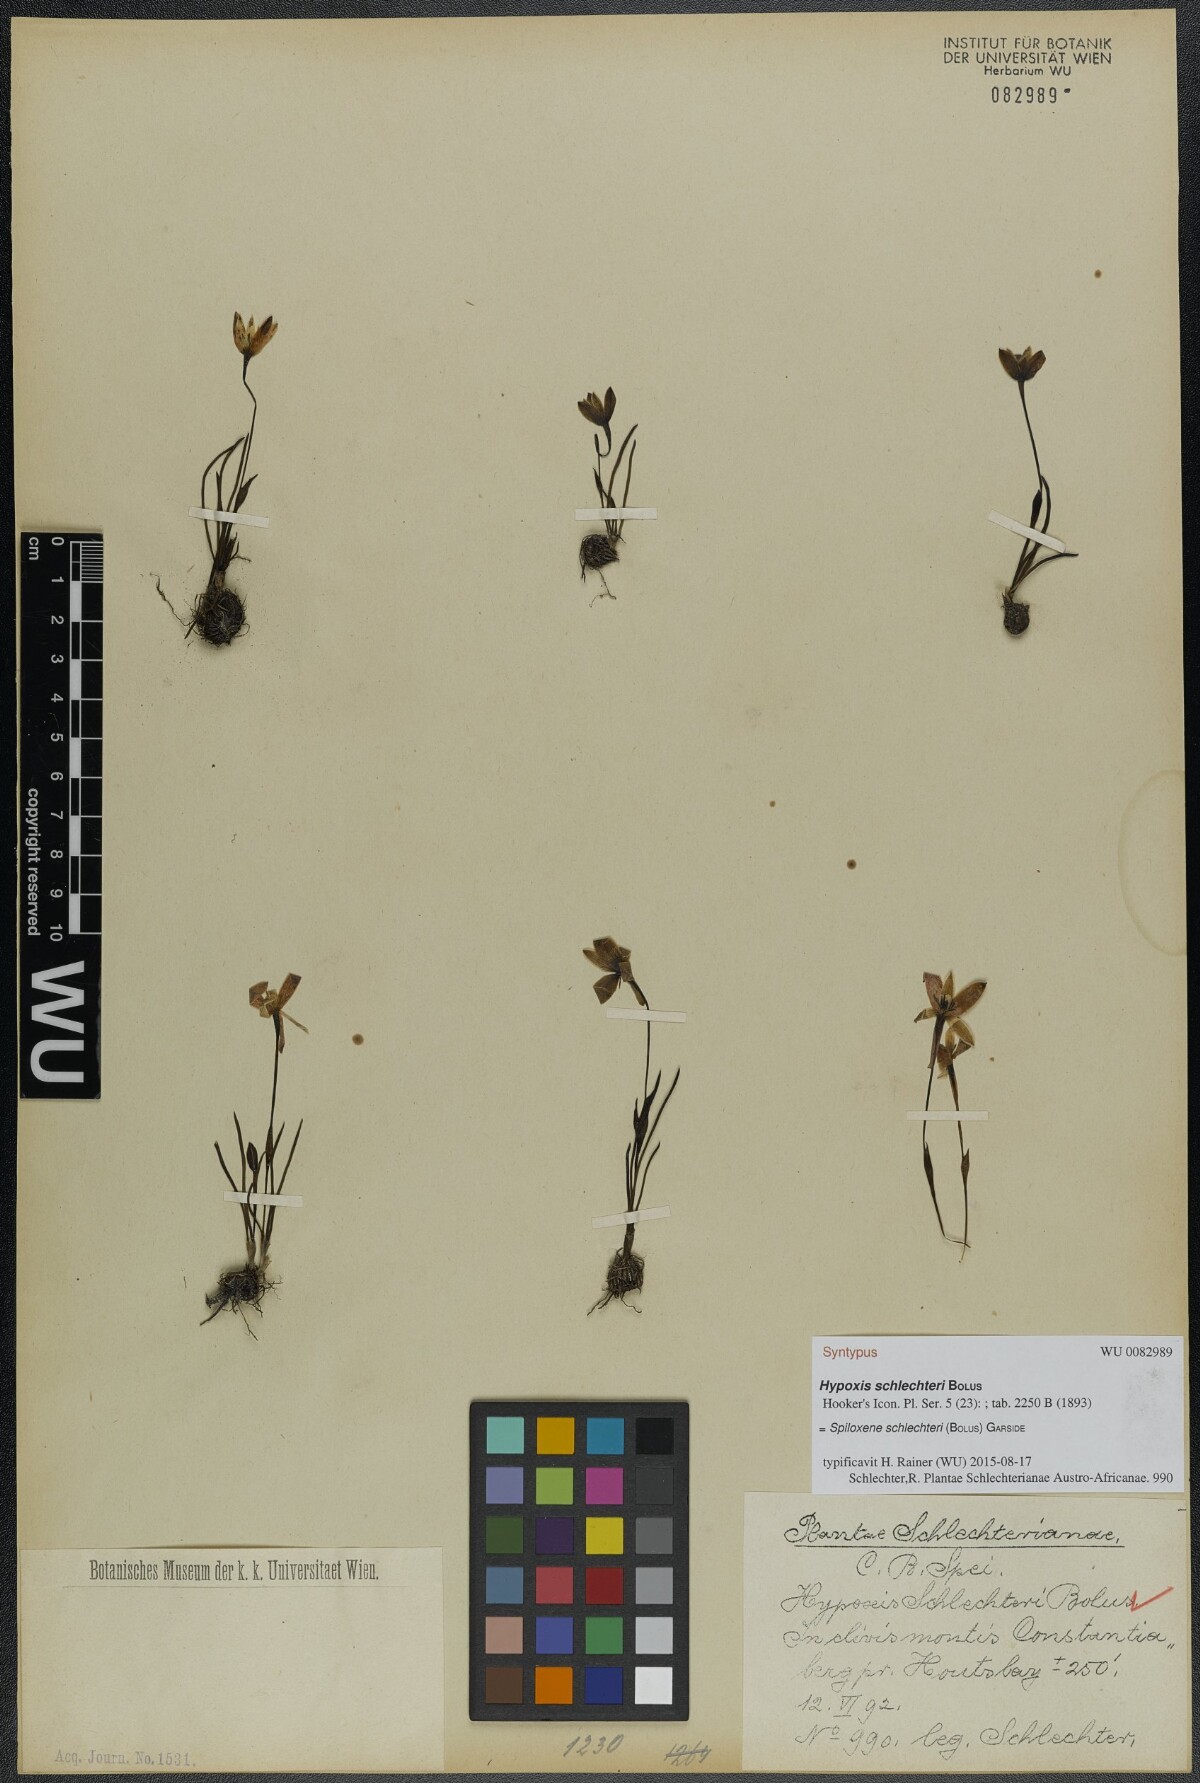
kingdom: Plantae
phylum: Tracheophyta
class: Liliopsida
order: Asparagales
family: Hypoxidaceae
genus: Pauridia
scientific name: Pauridia affinis
